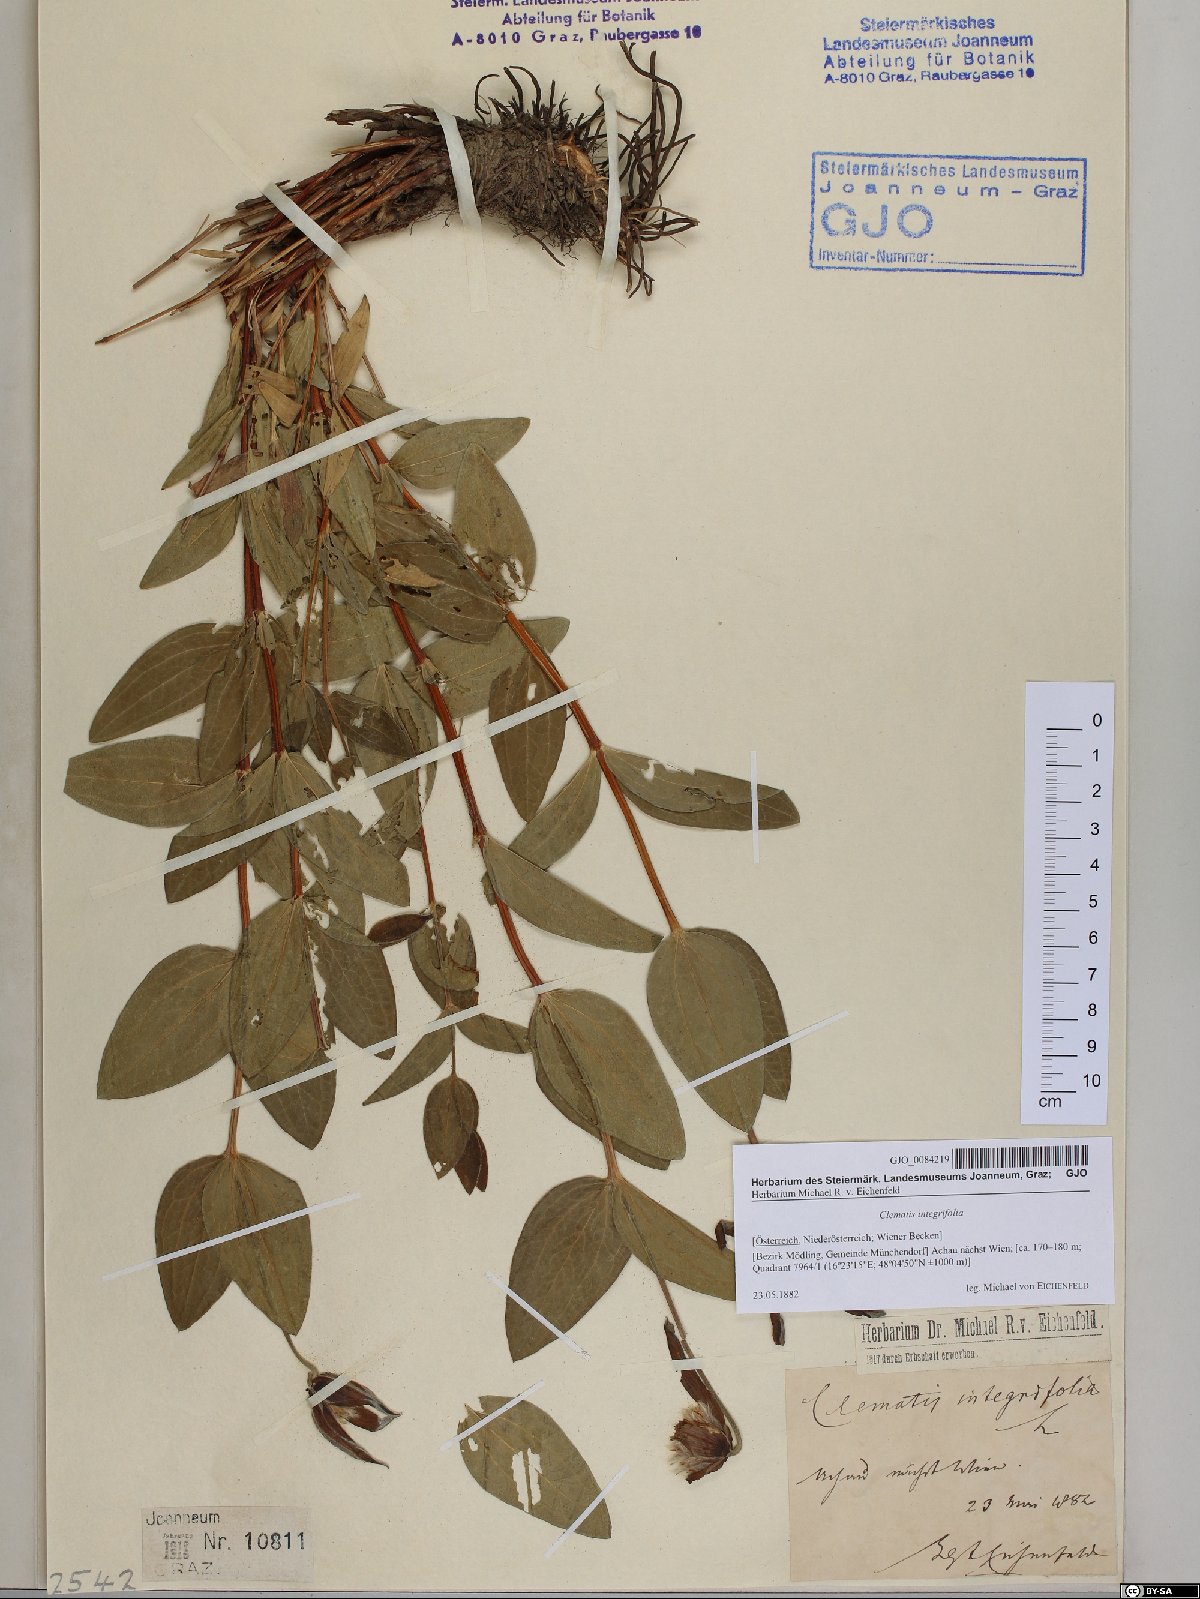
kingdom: Plantae
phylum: Tracheophyta
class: Magnoliopsida
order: Ranunculales
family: Ranunculaceae
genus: Clematis
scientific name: Clematis integrifolia
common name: Solitary clematis
